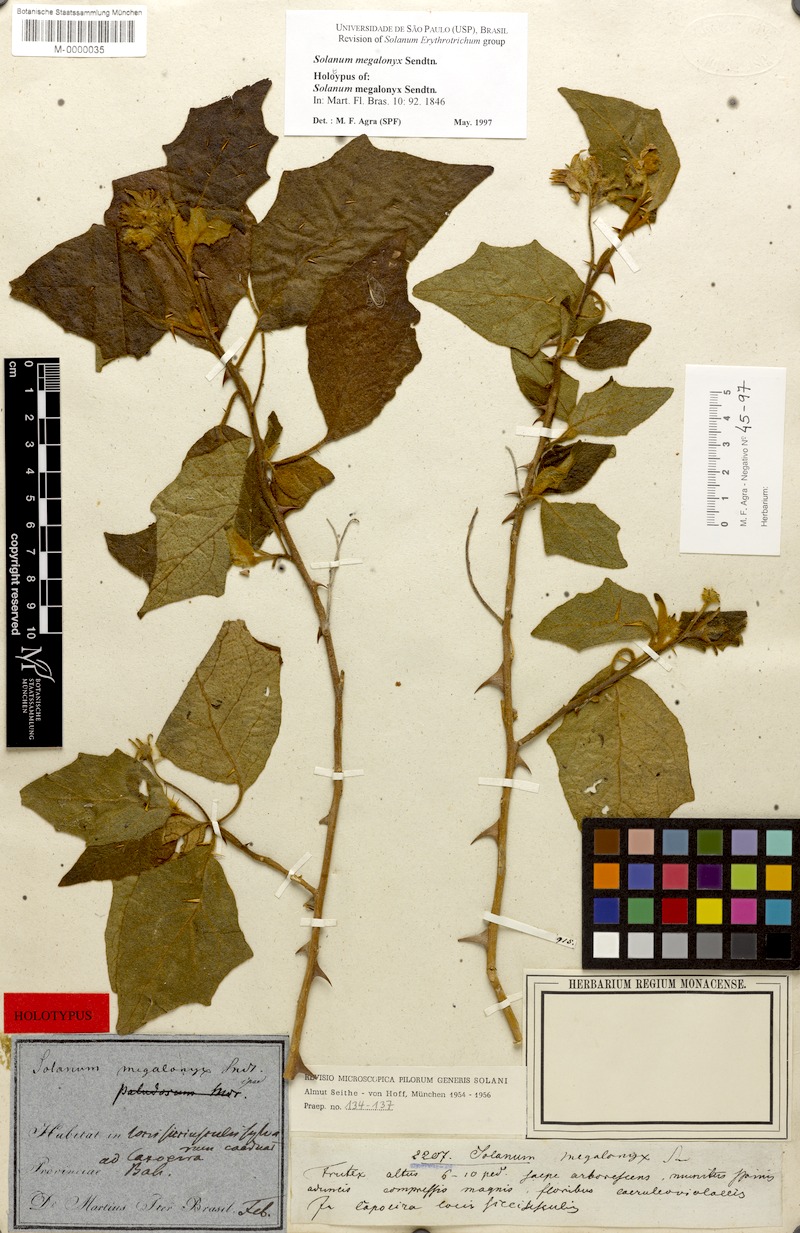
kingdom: Plantae
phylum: Tracheophyta
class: Magnoliopsida
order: Solanales
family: Solanaceae
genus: Solanum
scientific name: Solanum megalonyx
